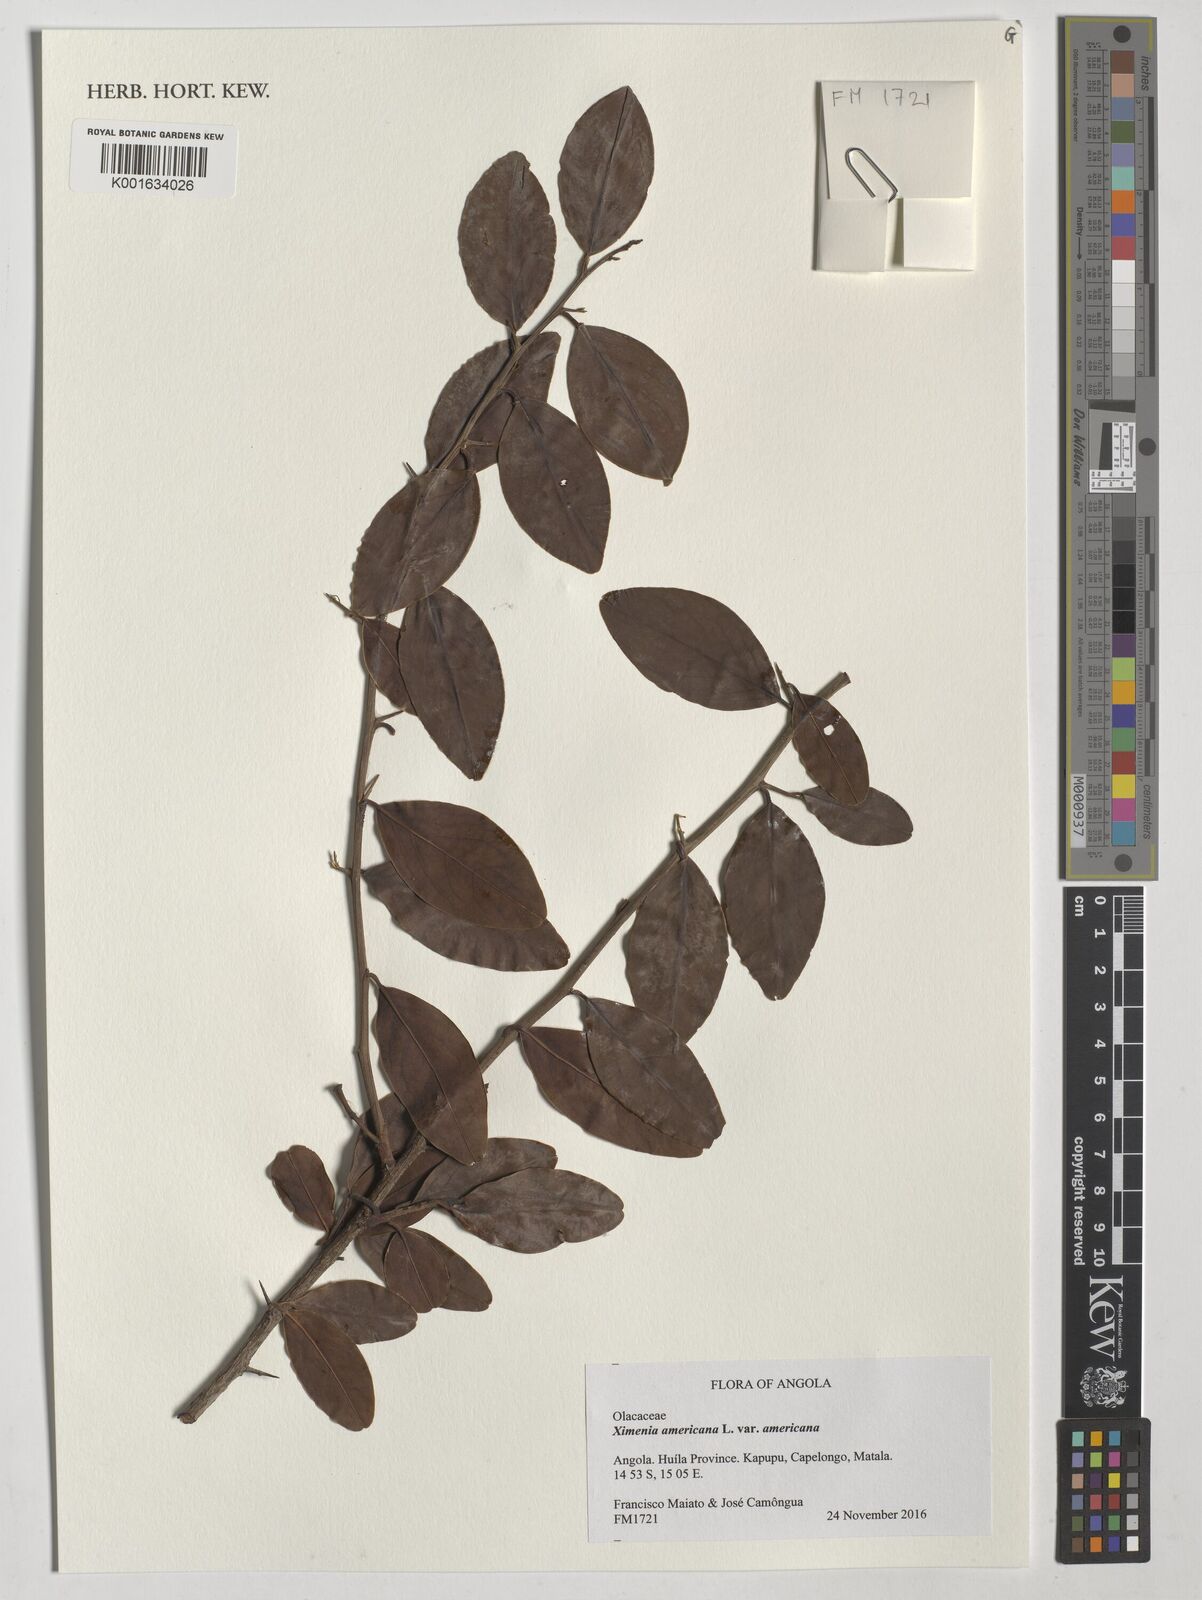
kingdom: Plantae
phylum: Tracheophyta
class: Magnoliopsida
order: Santalales
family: Ximeniaceae
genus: Ximenia
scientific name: Ximenia americana
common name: Tallowwood
